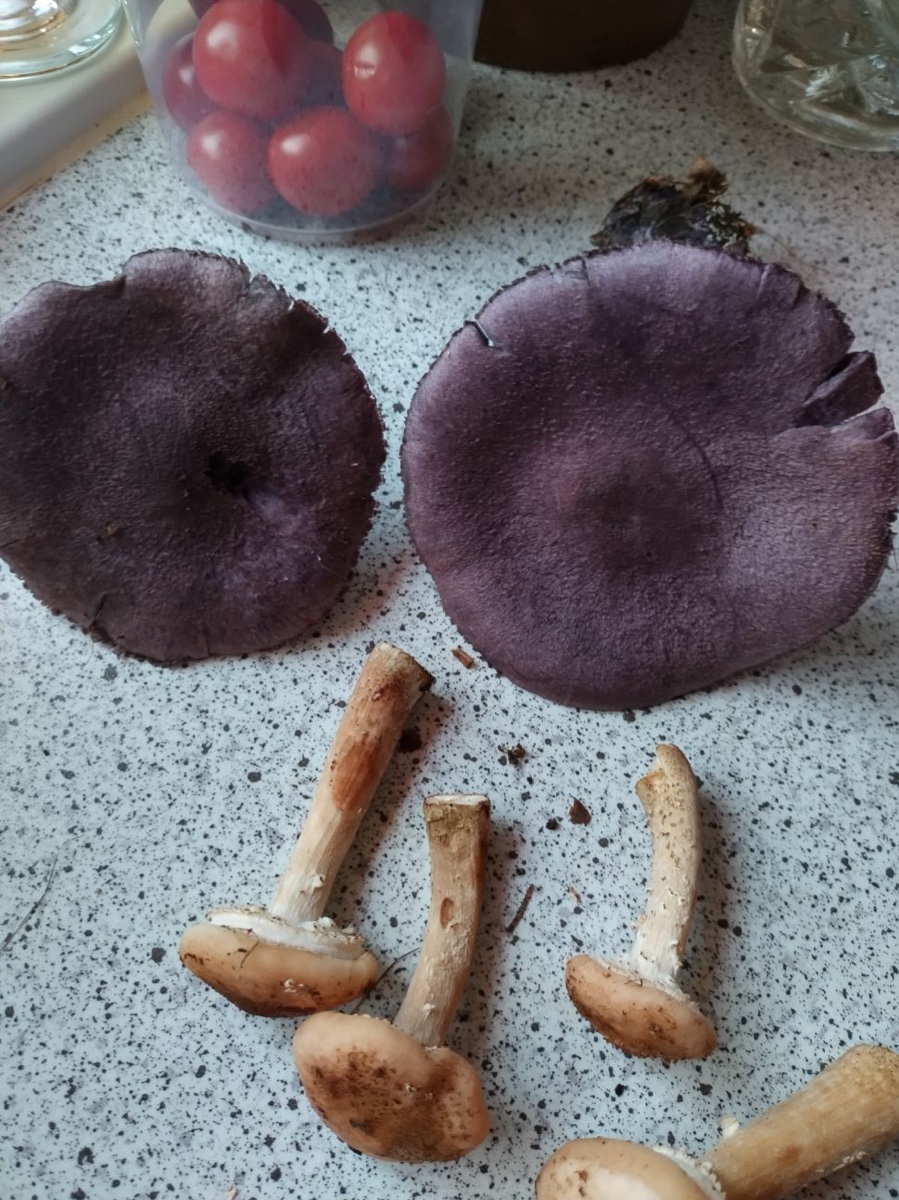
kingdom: Fungi
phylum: Basidiomycota
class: Agaricomycetes
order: Agaricales
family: Cortinariaceae
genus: Cortinarius
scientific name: Cortinarius violaceus
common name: mørkviolet slørhat
